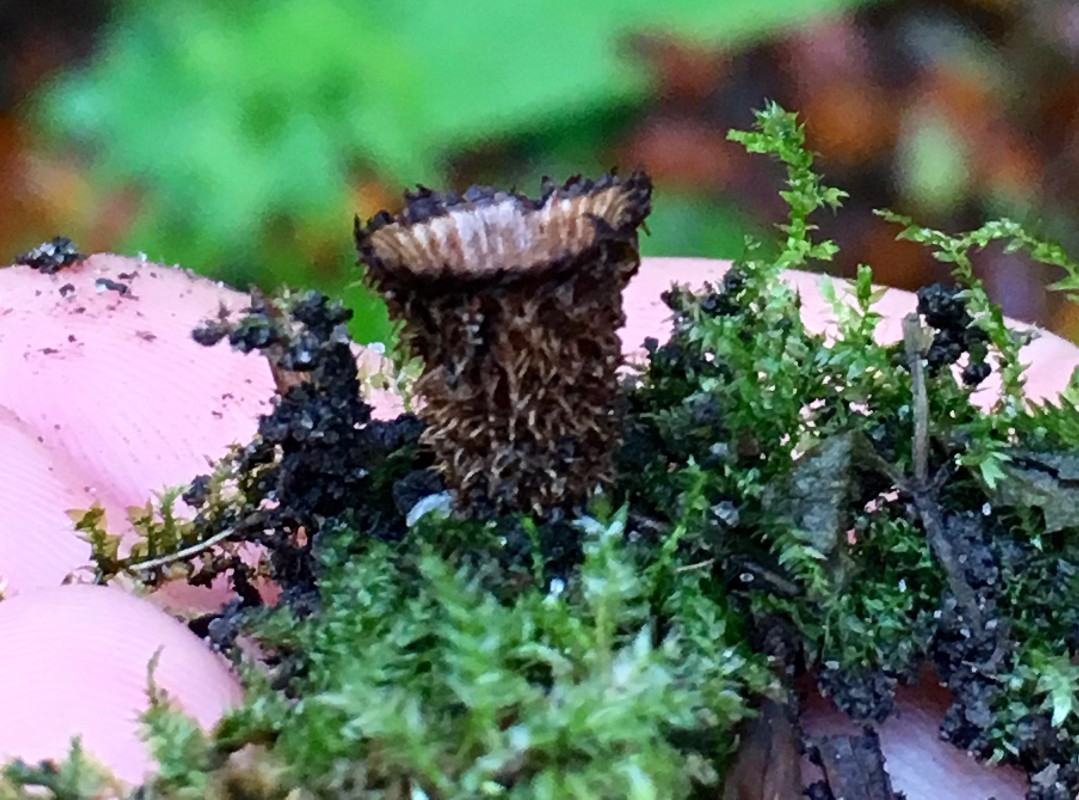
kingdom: Fungi
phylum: Basidiomycota
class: Agaricomycetes
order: Agaricales
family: Agaricaceae
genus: Cyathus
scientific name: Cyathus striatus
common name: stribet redesvamp
